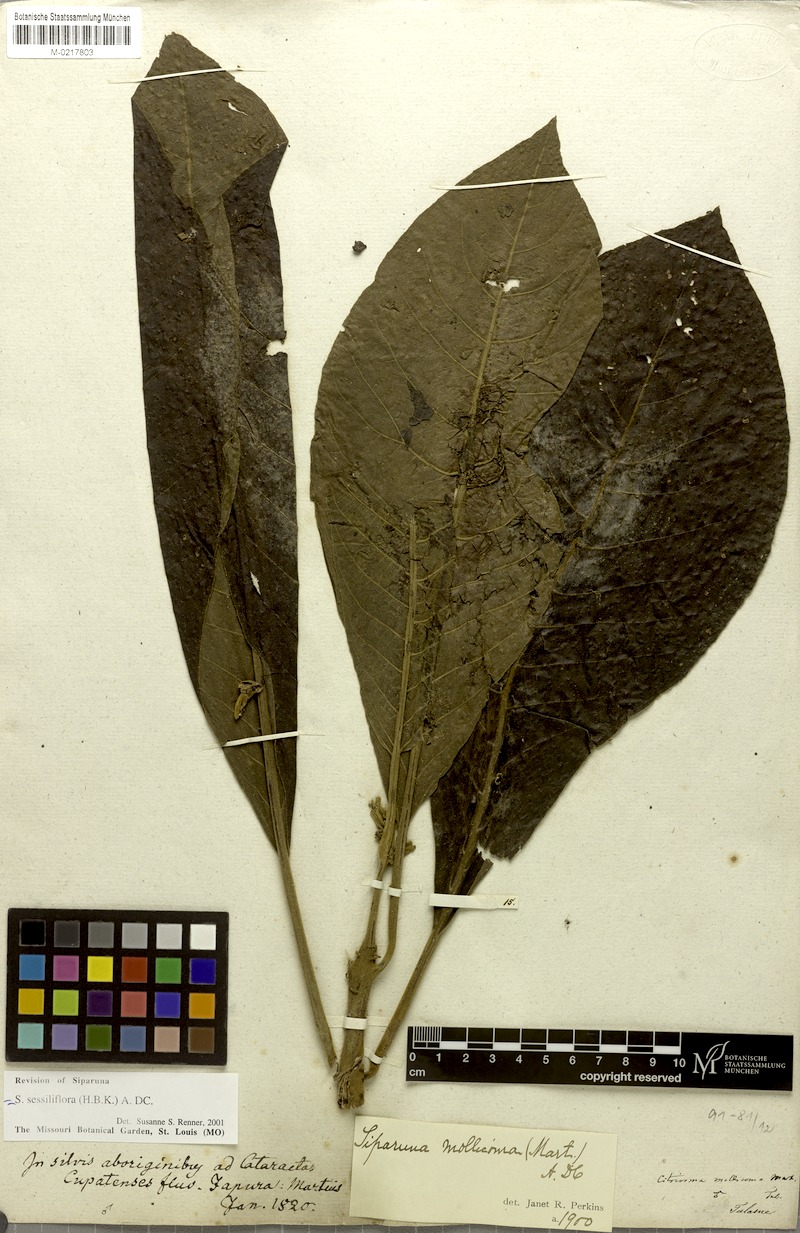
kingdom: Plantae
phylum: Tracheophyta
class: Magnoliopsida
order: Laurales
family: Siparunaceae
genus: Siparuna
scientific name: Siparuna sessiliflora
